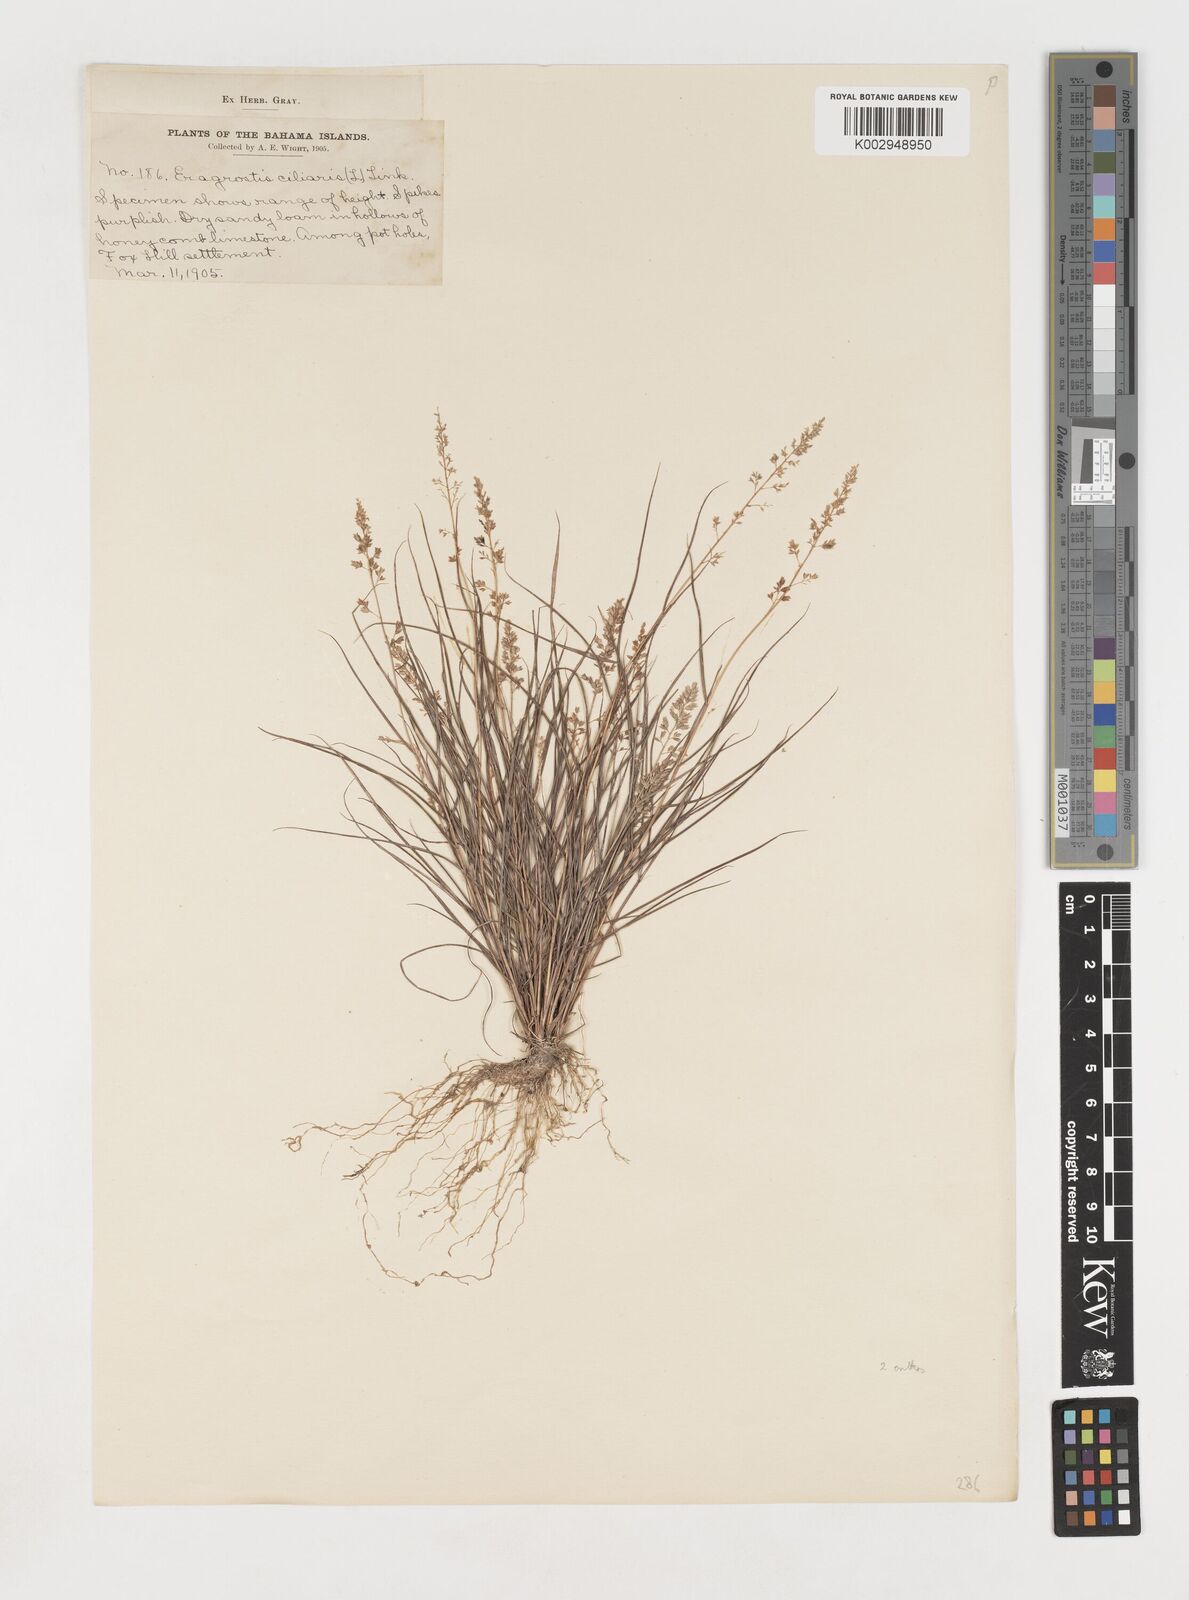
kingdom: Plantae
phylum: Tracheophyta
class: Liliopsida
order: Poales
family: Poaceae
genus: Eragrostis
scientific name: Eragrostis ciliaris
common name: Gophertail lovegrass
